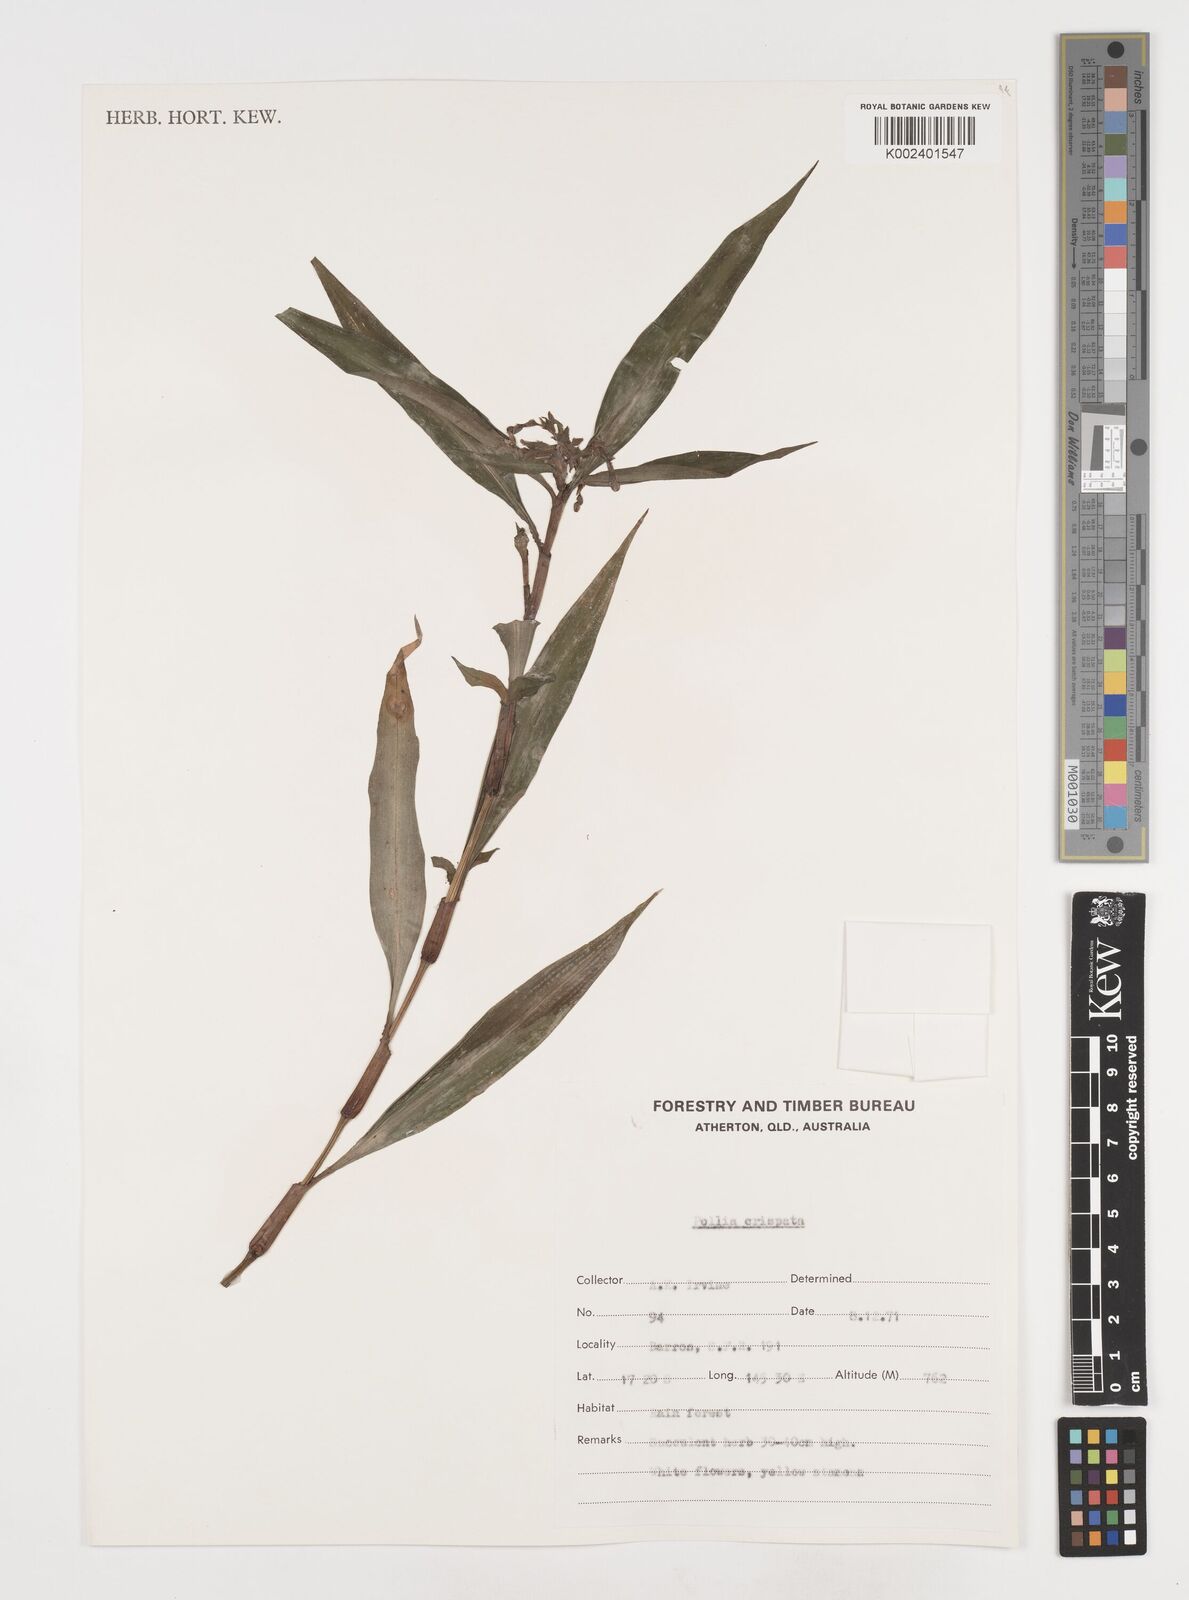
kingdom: Plantae
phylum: Tracheophyta
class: Liliopsida
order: Commelinales
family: Commelinaceae
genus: Pollia
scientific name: Pollia crispata
